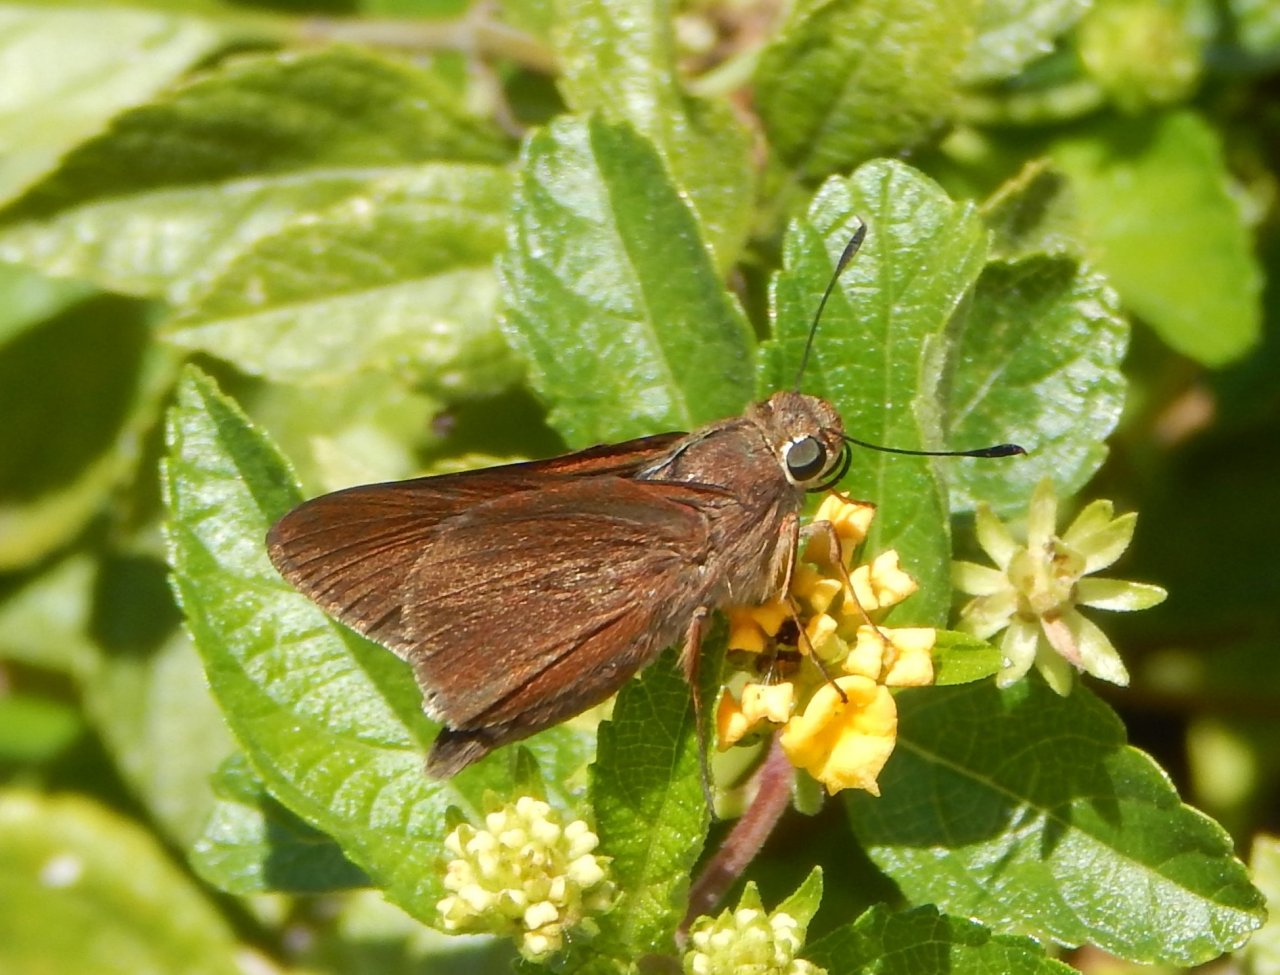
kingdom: Animalia
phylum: Arthropoda
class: Insecta
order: Lepidoptera
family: Hesperiidae
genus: Asbolis
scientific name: Asbolis capucinus
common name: Monk Skipper
